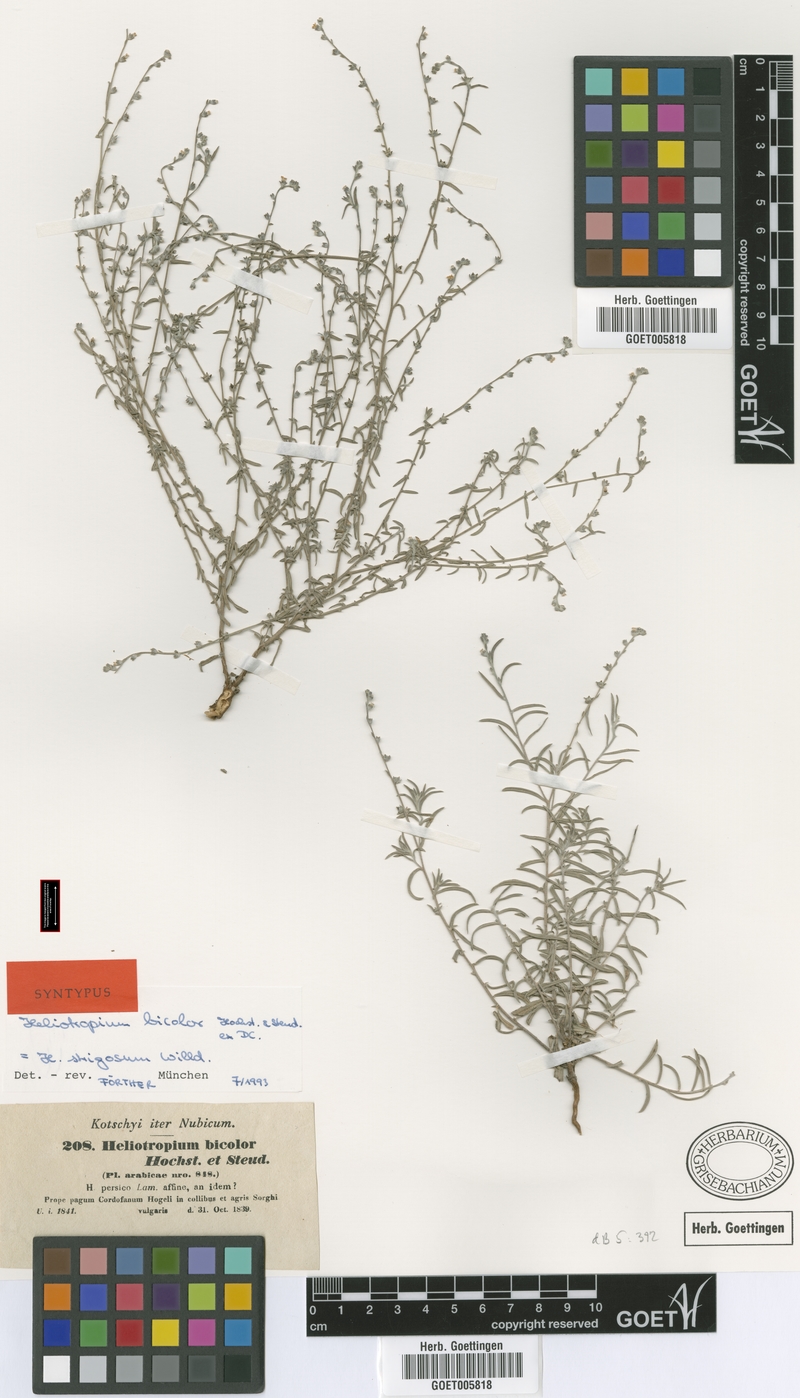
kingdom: Plantae
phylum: Tracheophyta
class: Magnoliopsida
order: Boraginales
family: Heliotropiaceae
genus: Euploca
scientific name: Euploca strigosa
